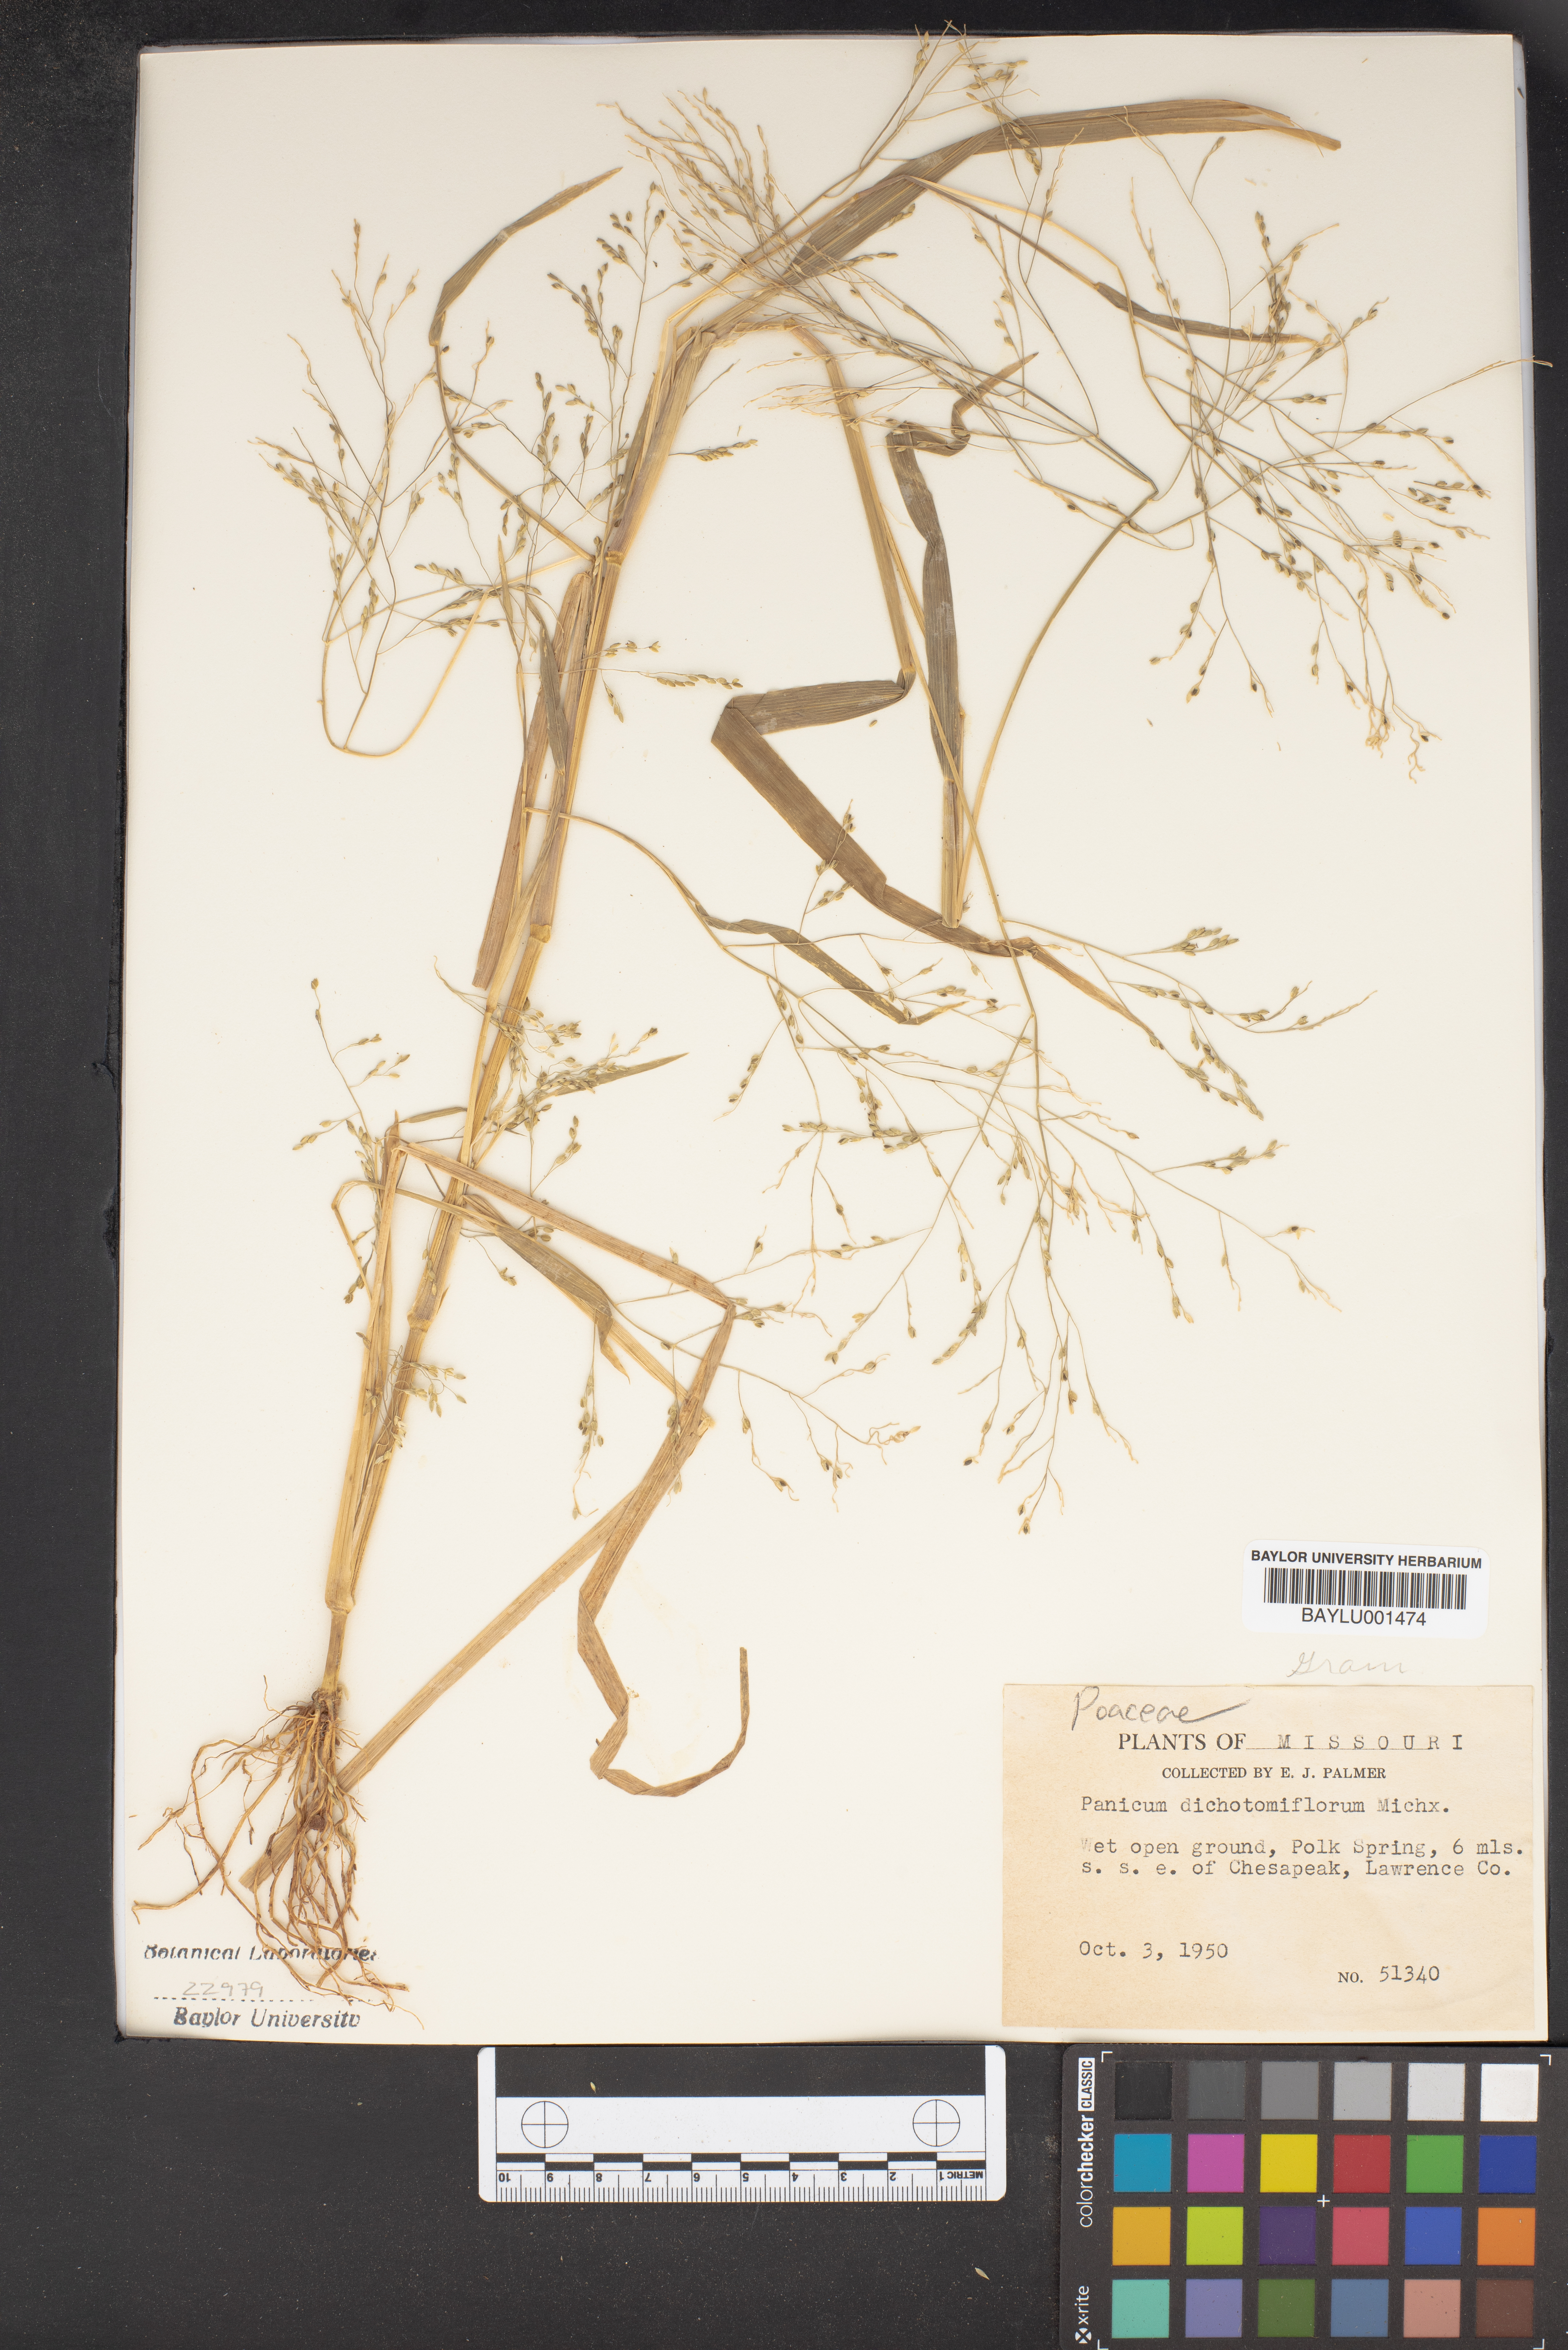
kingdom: Plantae
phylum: Tracheophyta
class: Liliopsida
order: Poales
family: Poaceae
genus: Panicum
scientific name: Panicum dichotomiflorum
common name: Autumn millet
